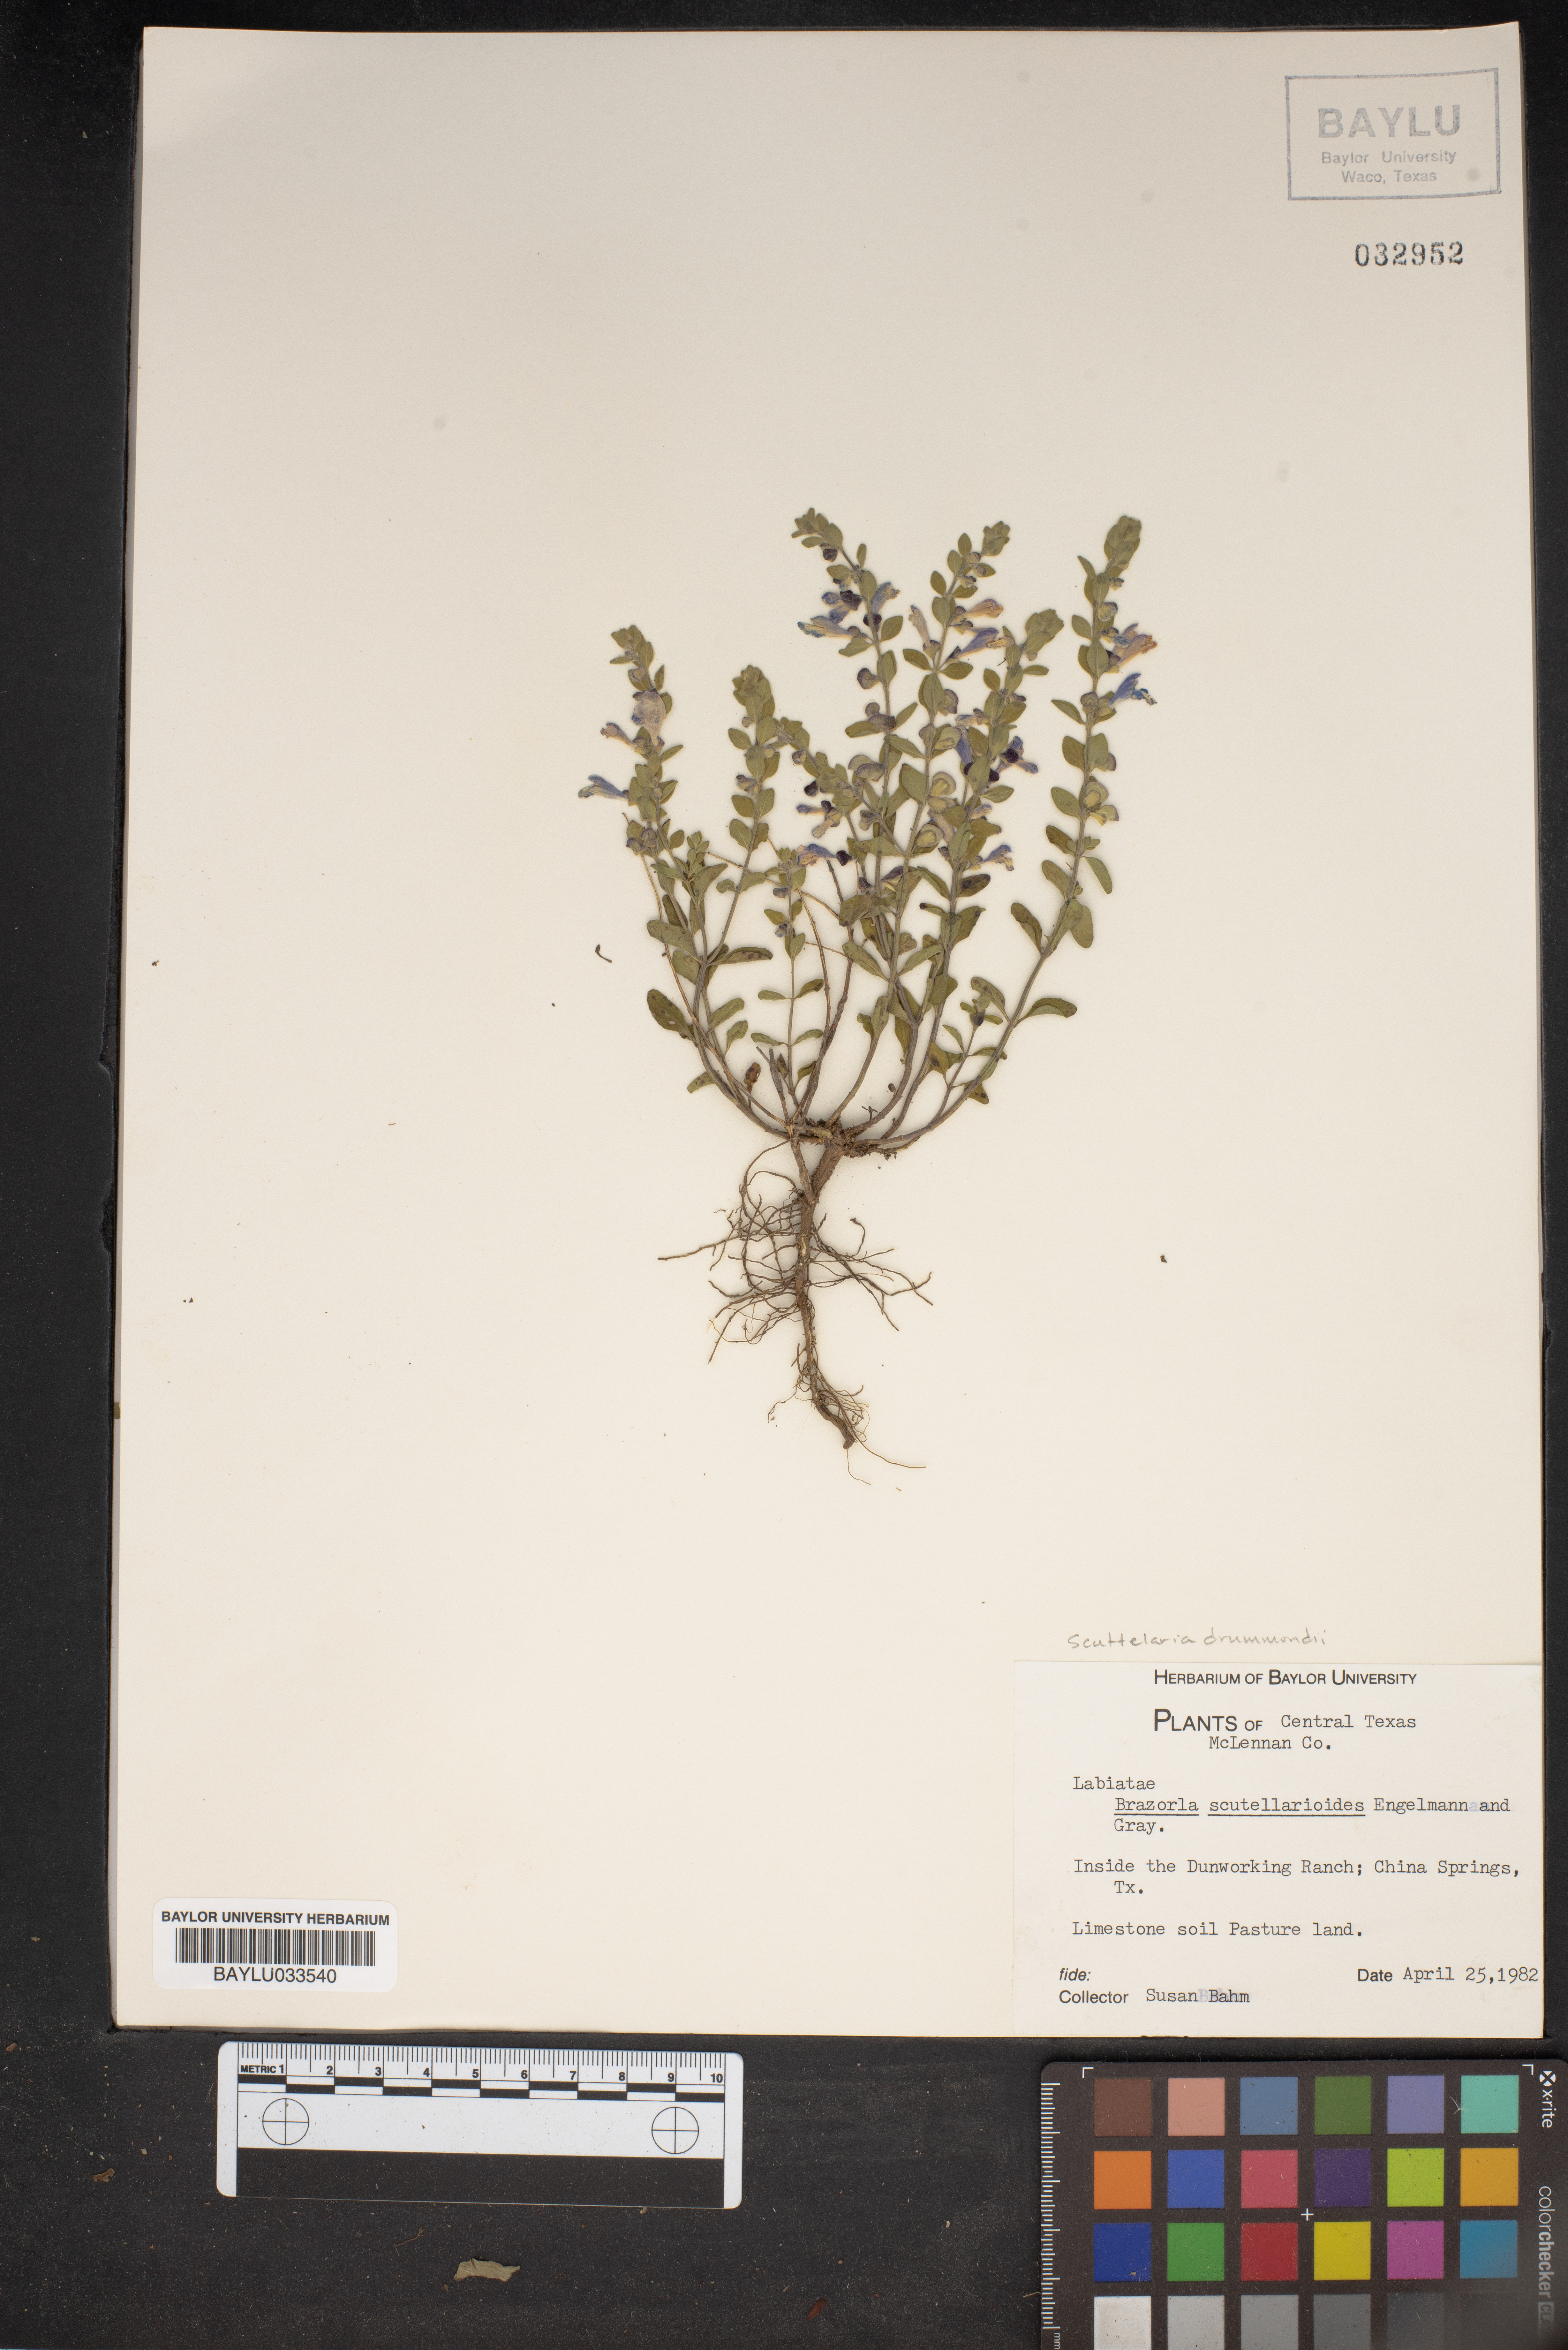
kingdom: Plantae
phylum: Tracheophyta
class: Magnoliopsida
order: Lamiales
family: Lamiaceae
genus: Warnockia
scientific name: Warnockia scutellarioides
